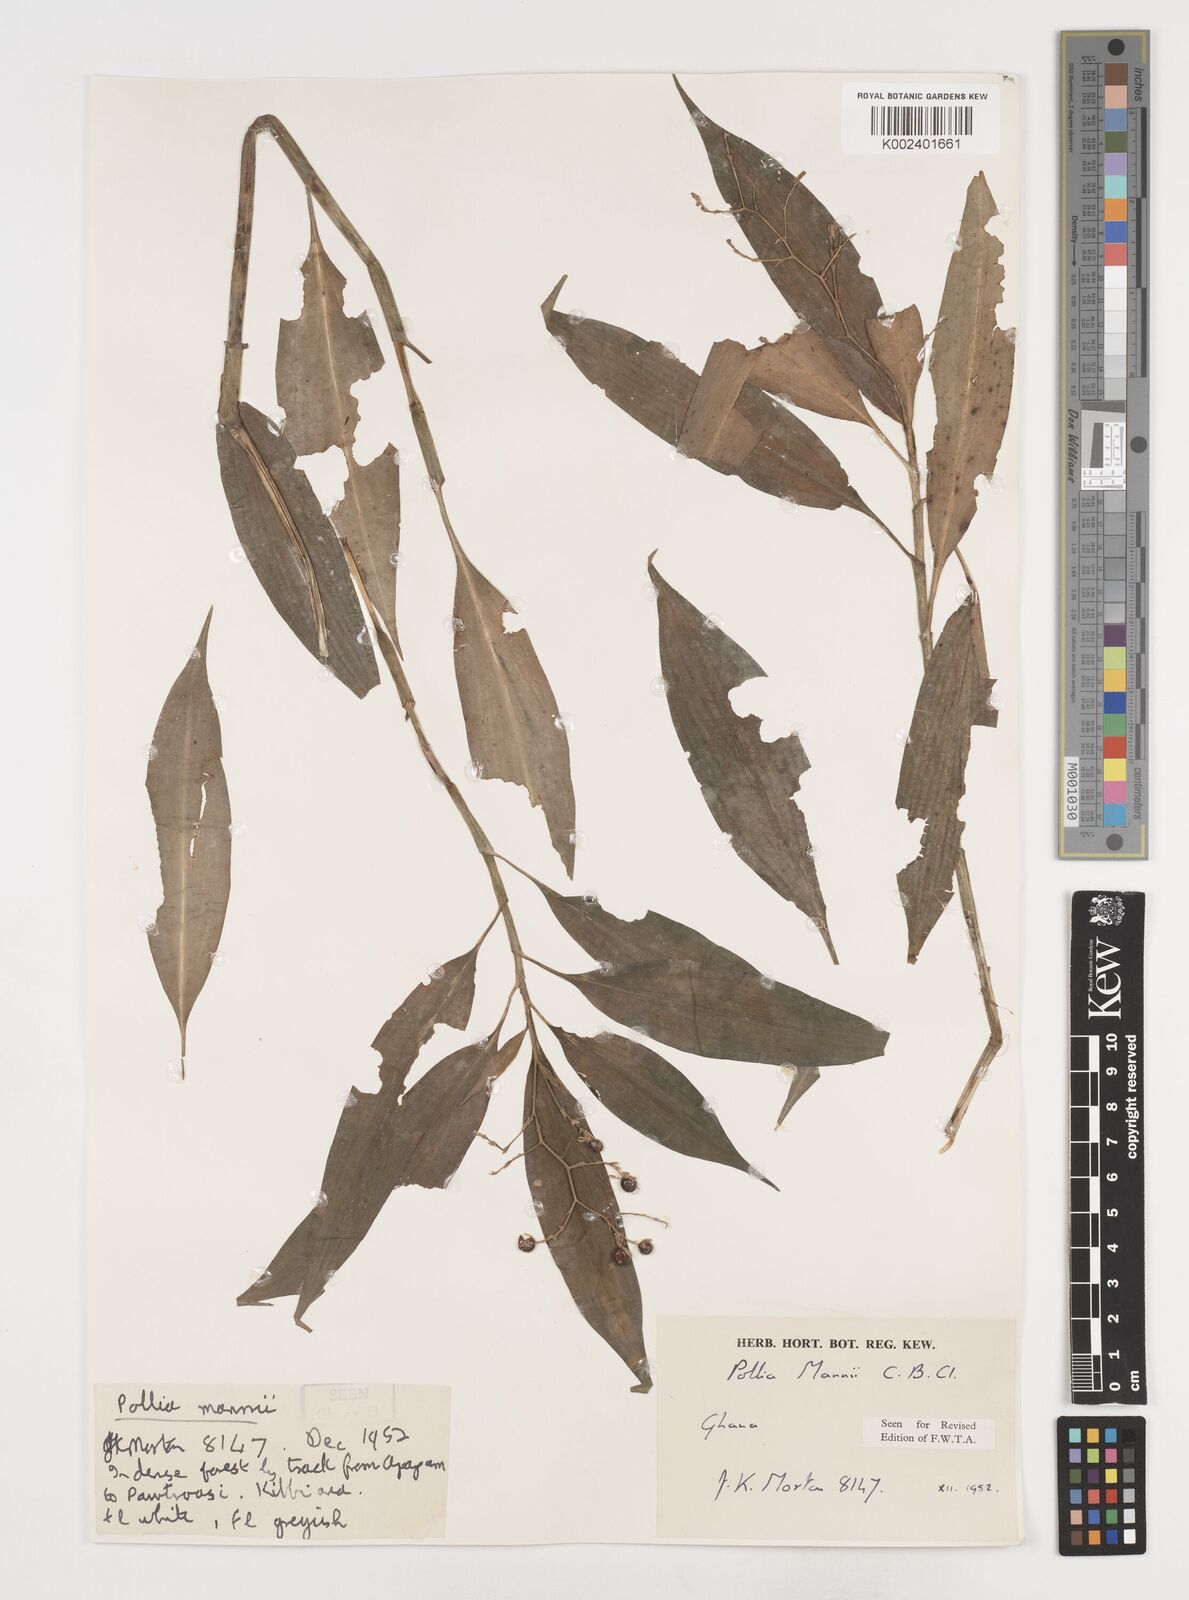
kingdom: Plantae
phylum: Tracheophyta
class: Liliopsida
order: Commelinales
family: Commelinaceae
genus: Pollia
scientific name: Pollia mannii
